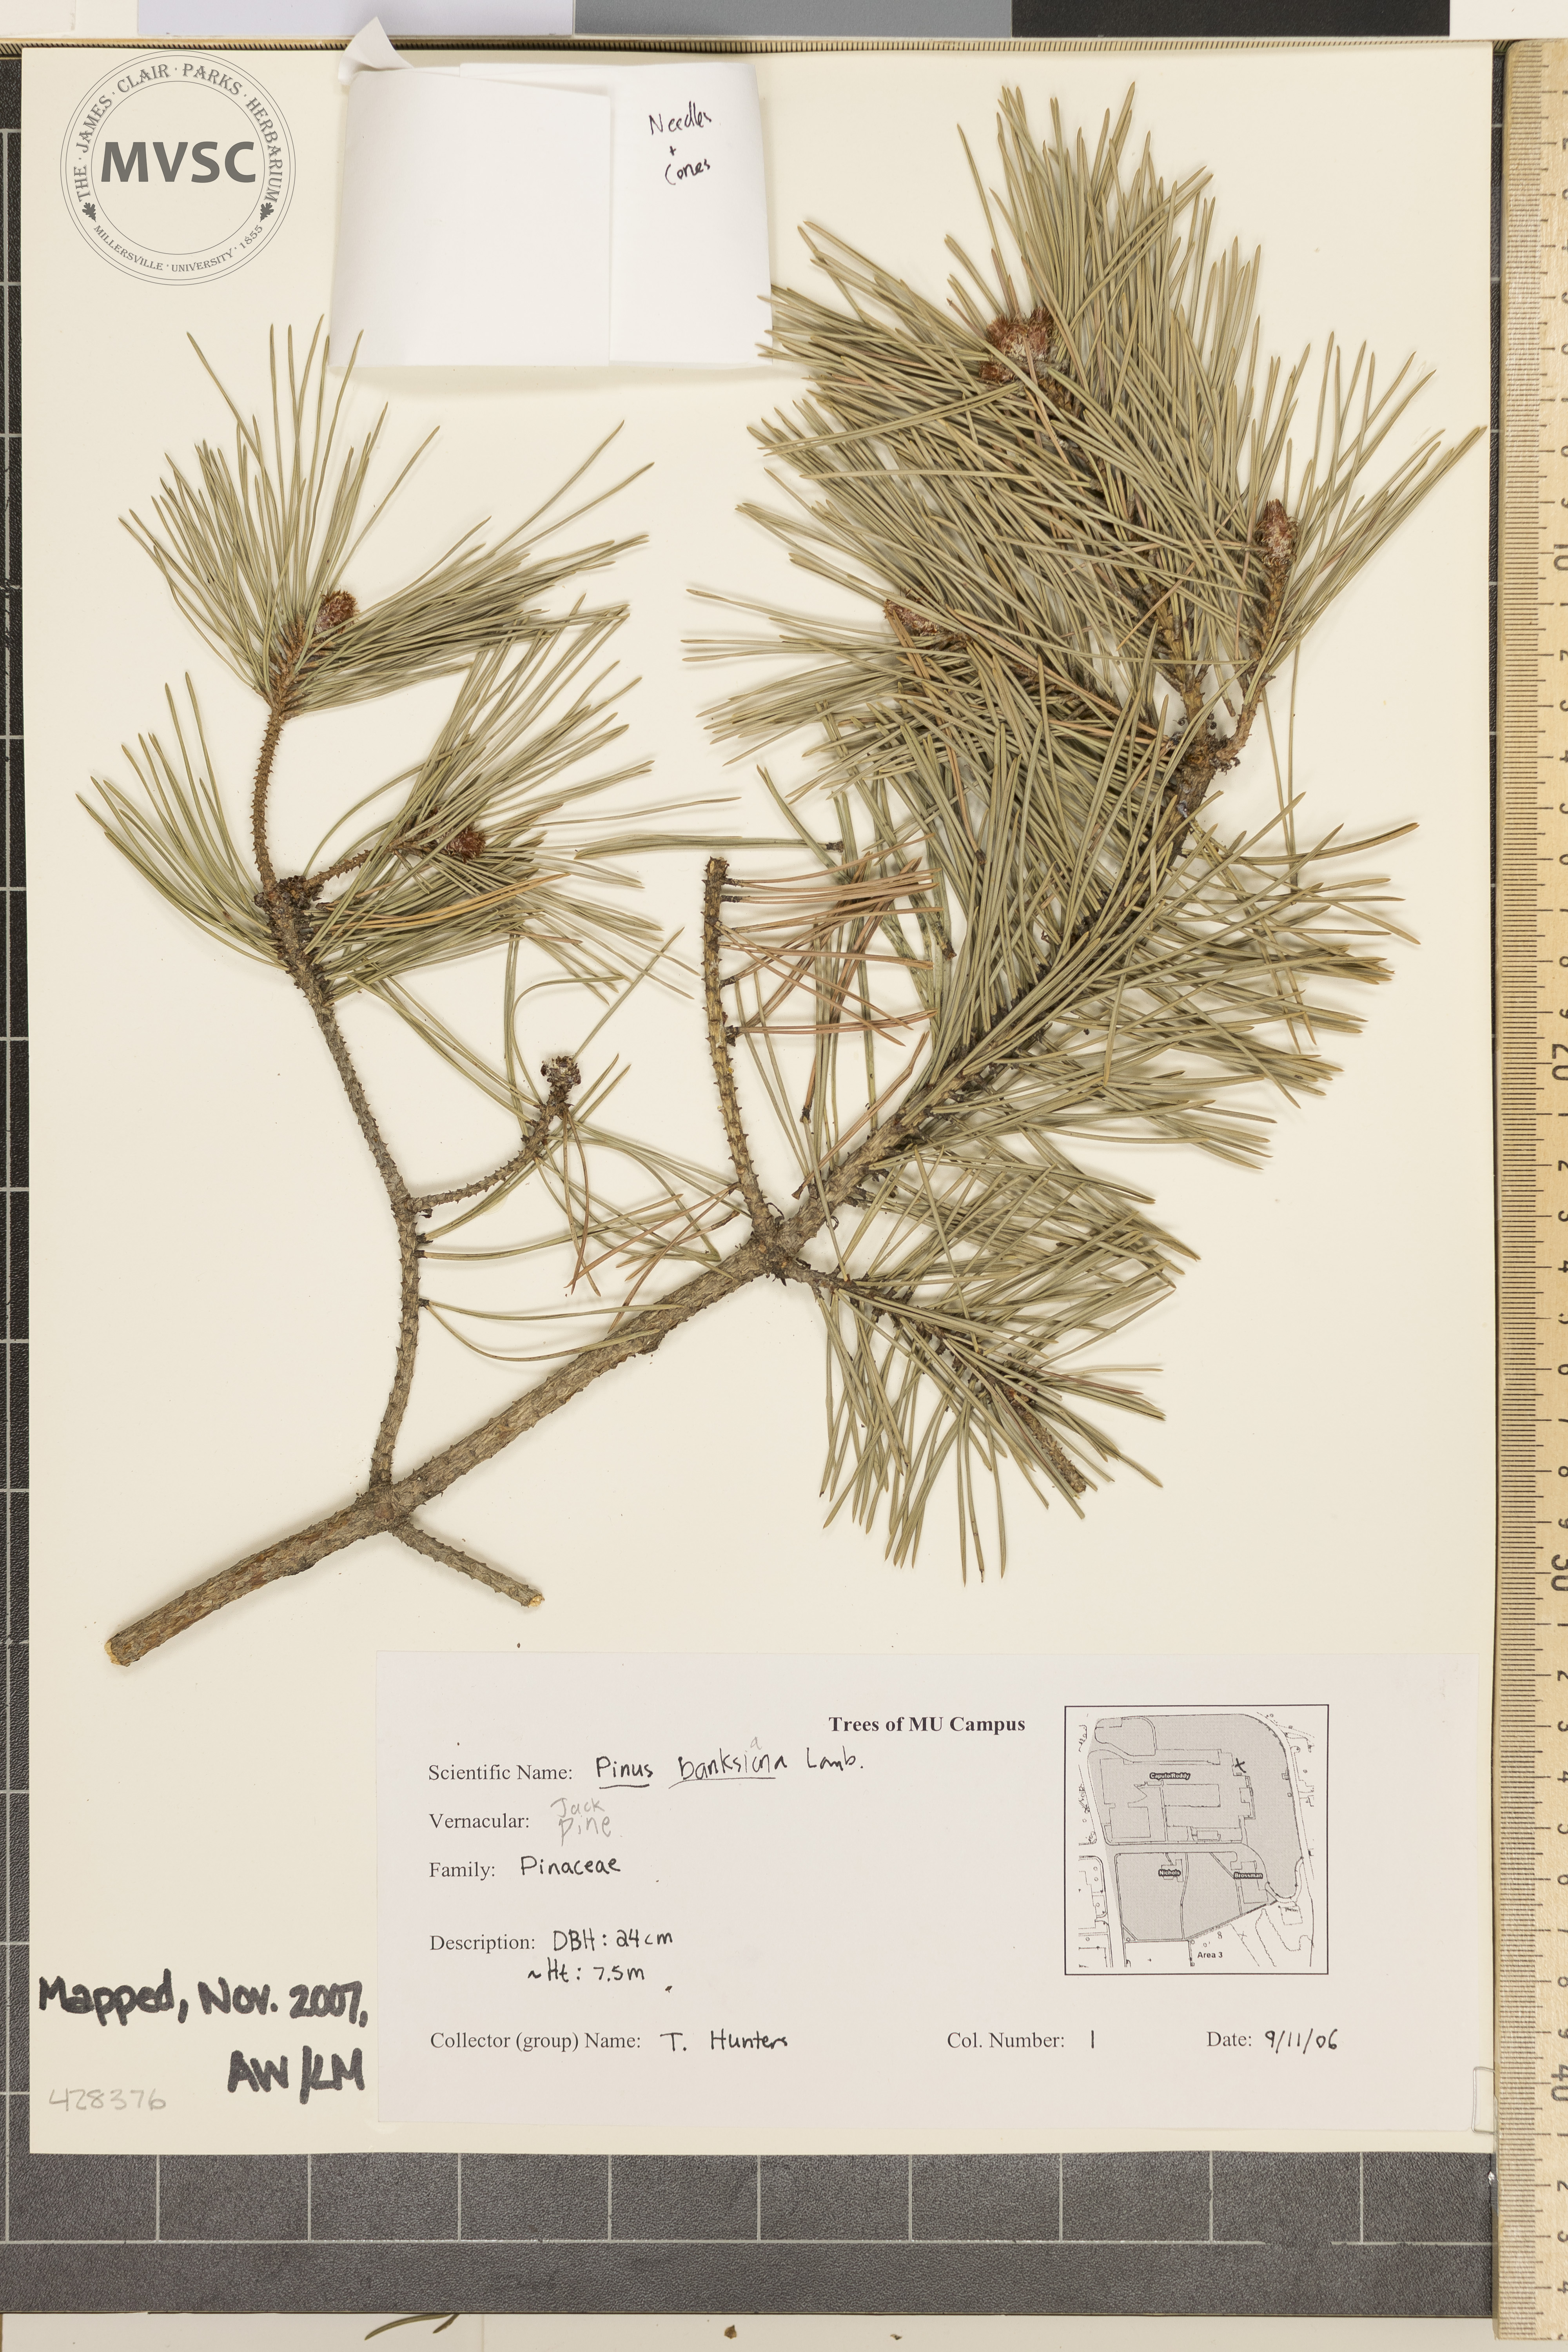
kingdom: Plantae
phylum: Tracheophyta
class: Pinopsida
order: Pinales
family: Pinaceae
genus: Pinus
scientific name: Pinus banksiana
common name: Jack Pine
